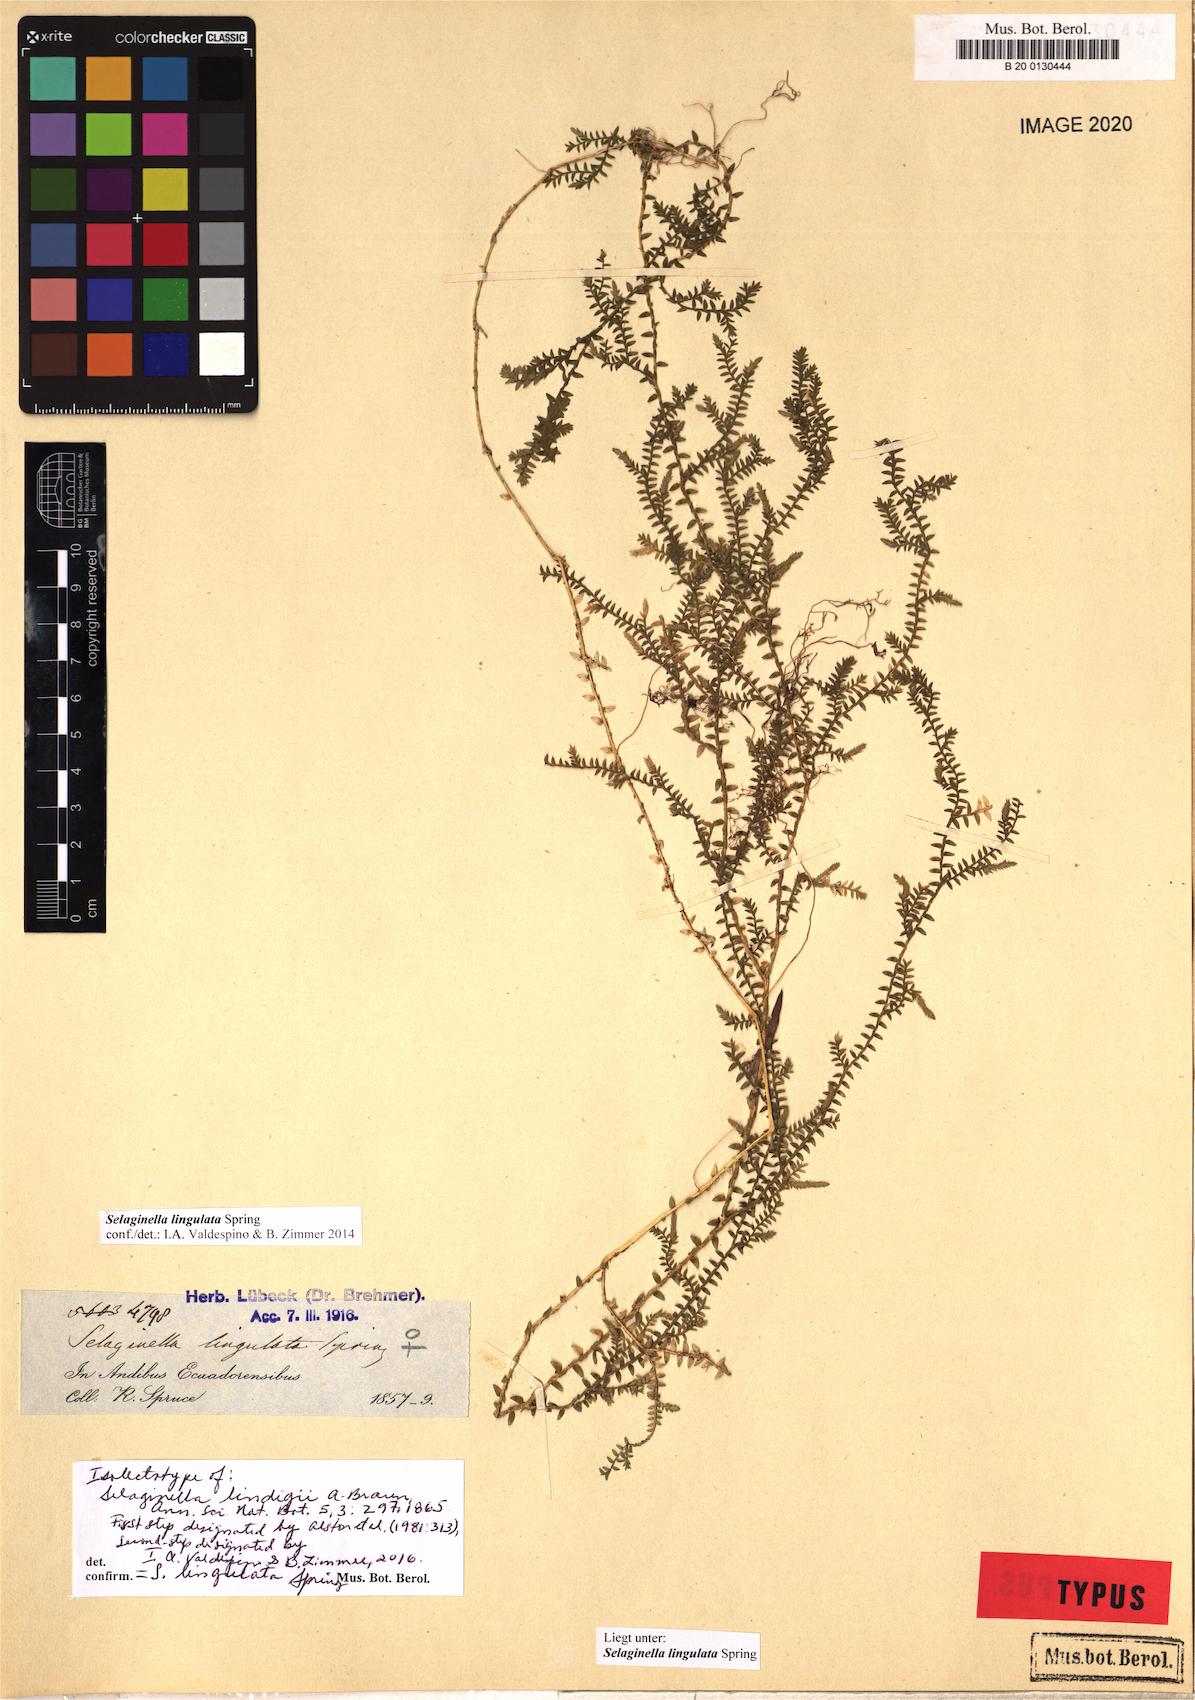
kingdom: Plantae
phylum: Tracheophyta
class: Lycopodiopsida
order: Selaginellales
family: Selaginellaceae
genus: Selaginella
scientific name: Selaginella lingulata
